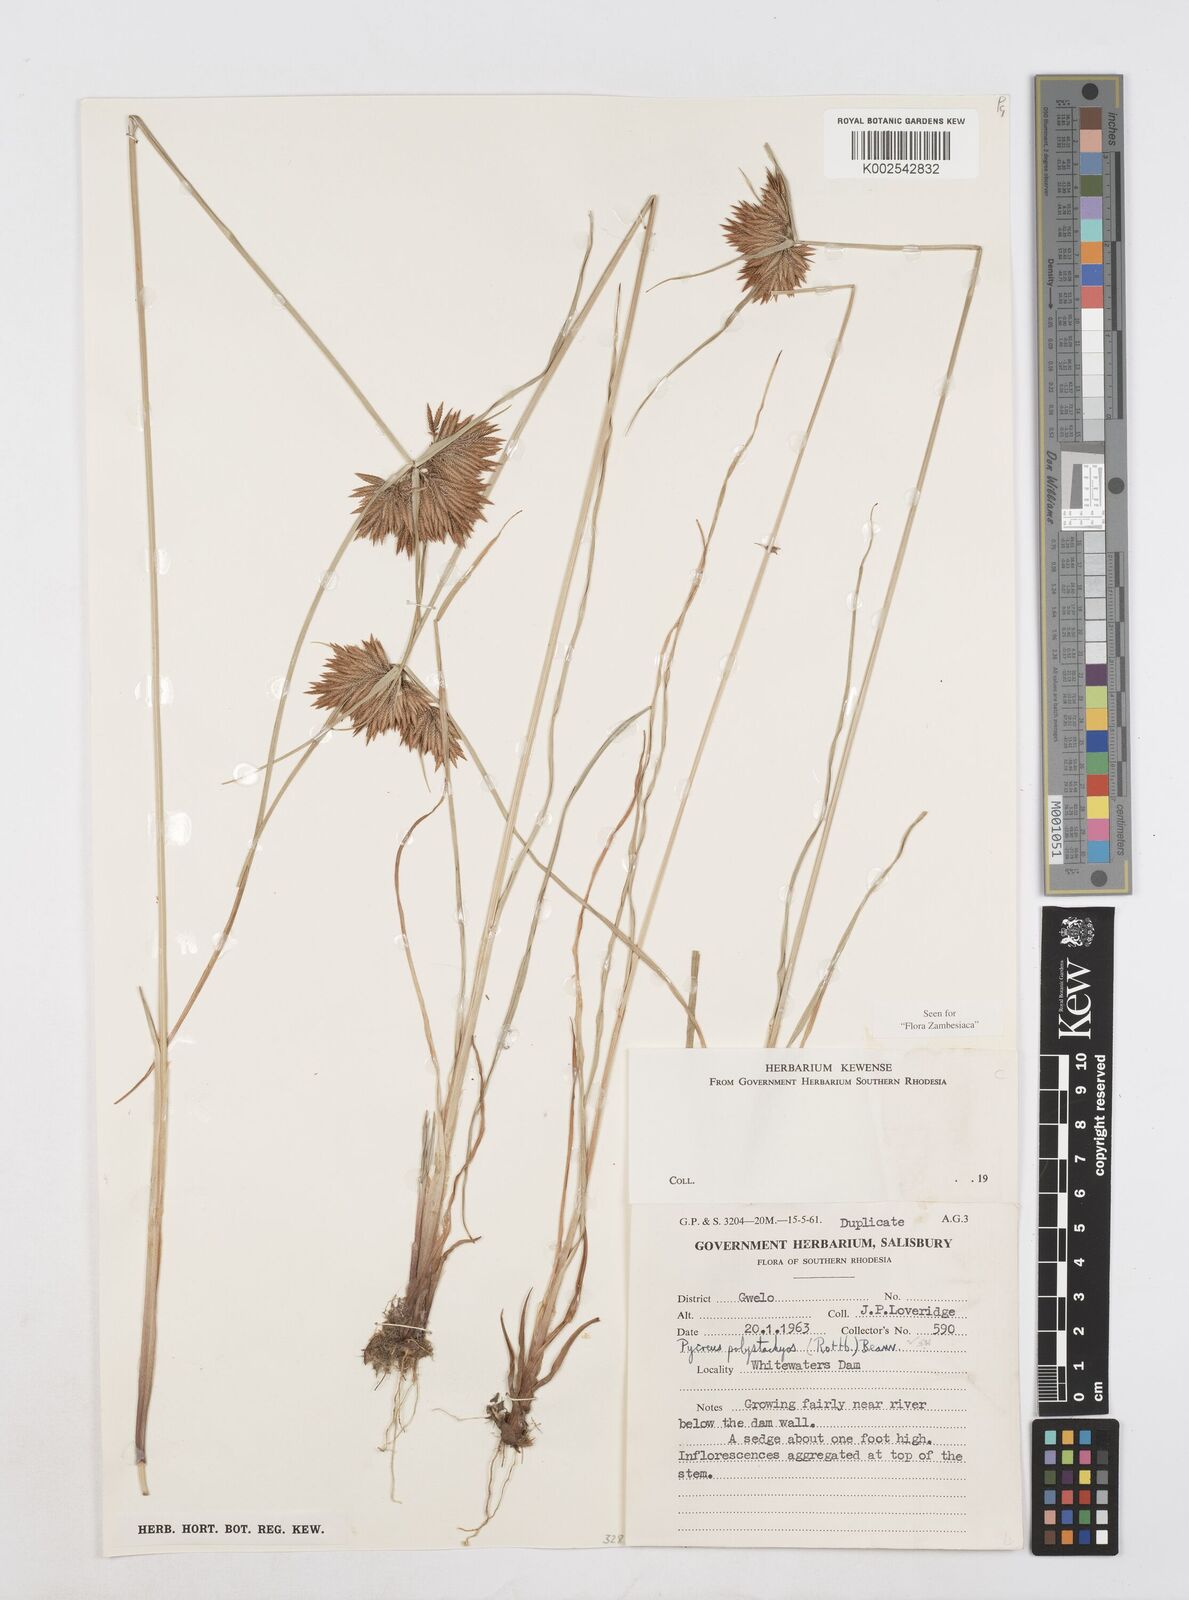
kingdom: Plantae
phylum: Tracheophyta
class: Liliopsida
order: Poales
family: Cyperaceae
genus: Cyperus
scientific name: Cyperus polystachyos
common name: Bunchy flat sedge
